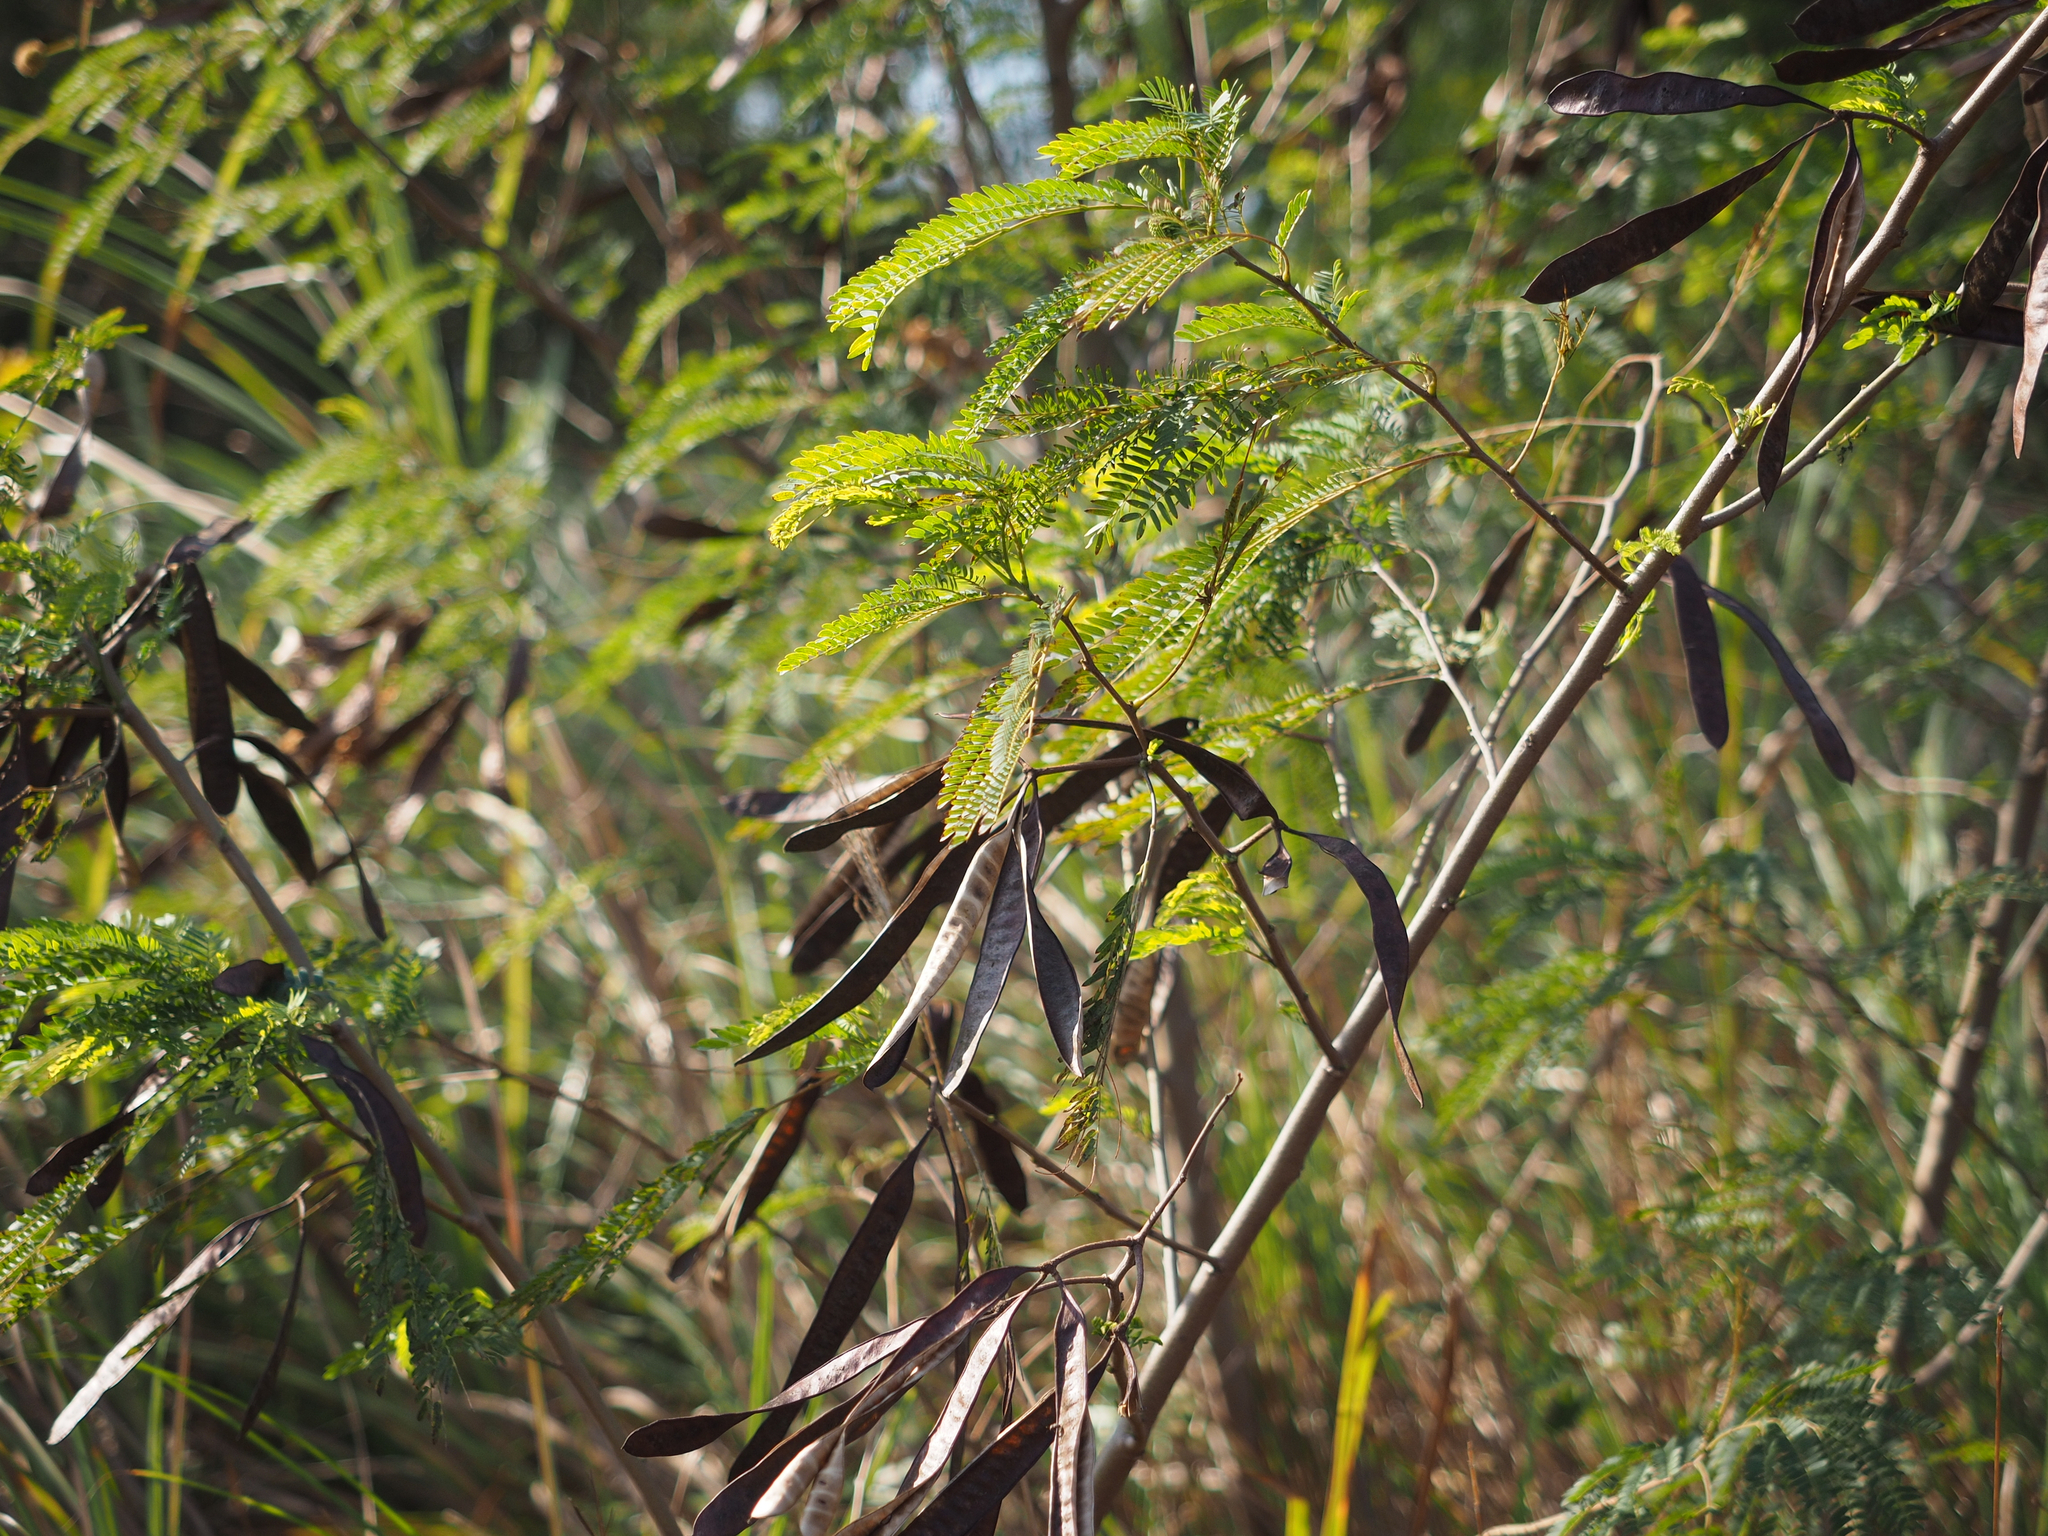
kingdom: Plantae
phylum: Tracheophyta
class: Magnoliopsida
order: Fabales
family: Fabaceae
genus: Leucaena
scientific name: Leucaena leucocephala
